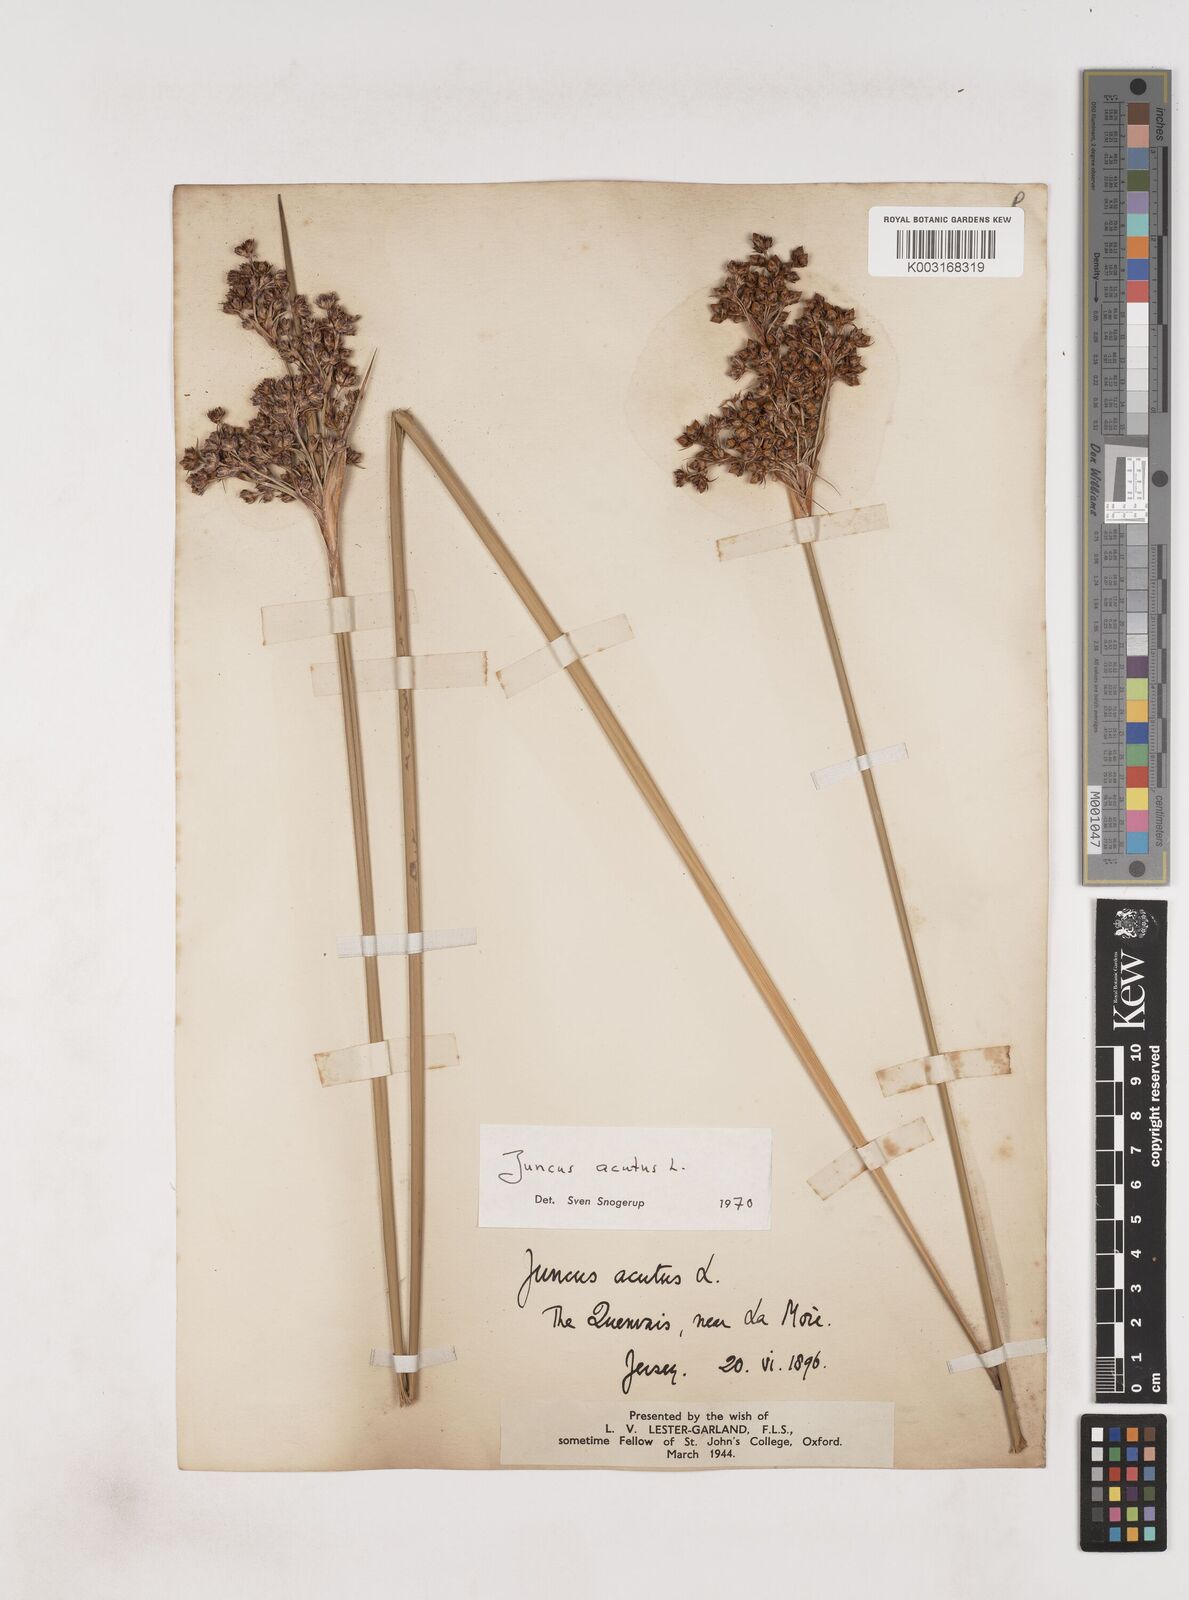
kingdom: Plantae
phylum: Tracheophyta
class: Liliopsida
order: Poales
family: Juncaceae
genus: Juncus
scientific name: Juncus acutus
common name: Sharp rush
